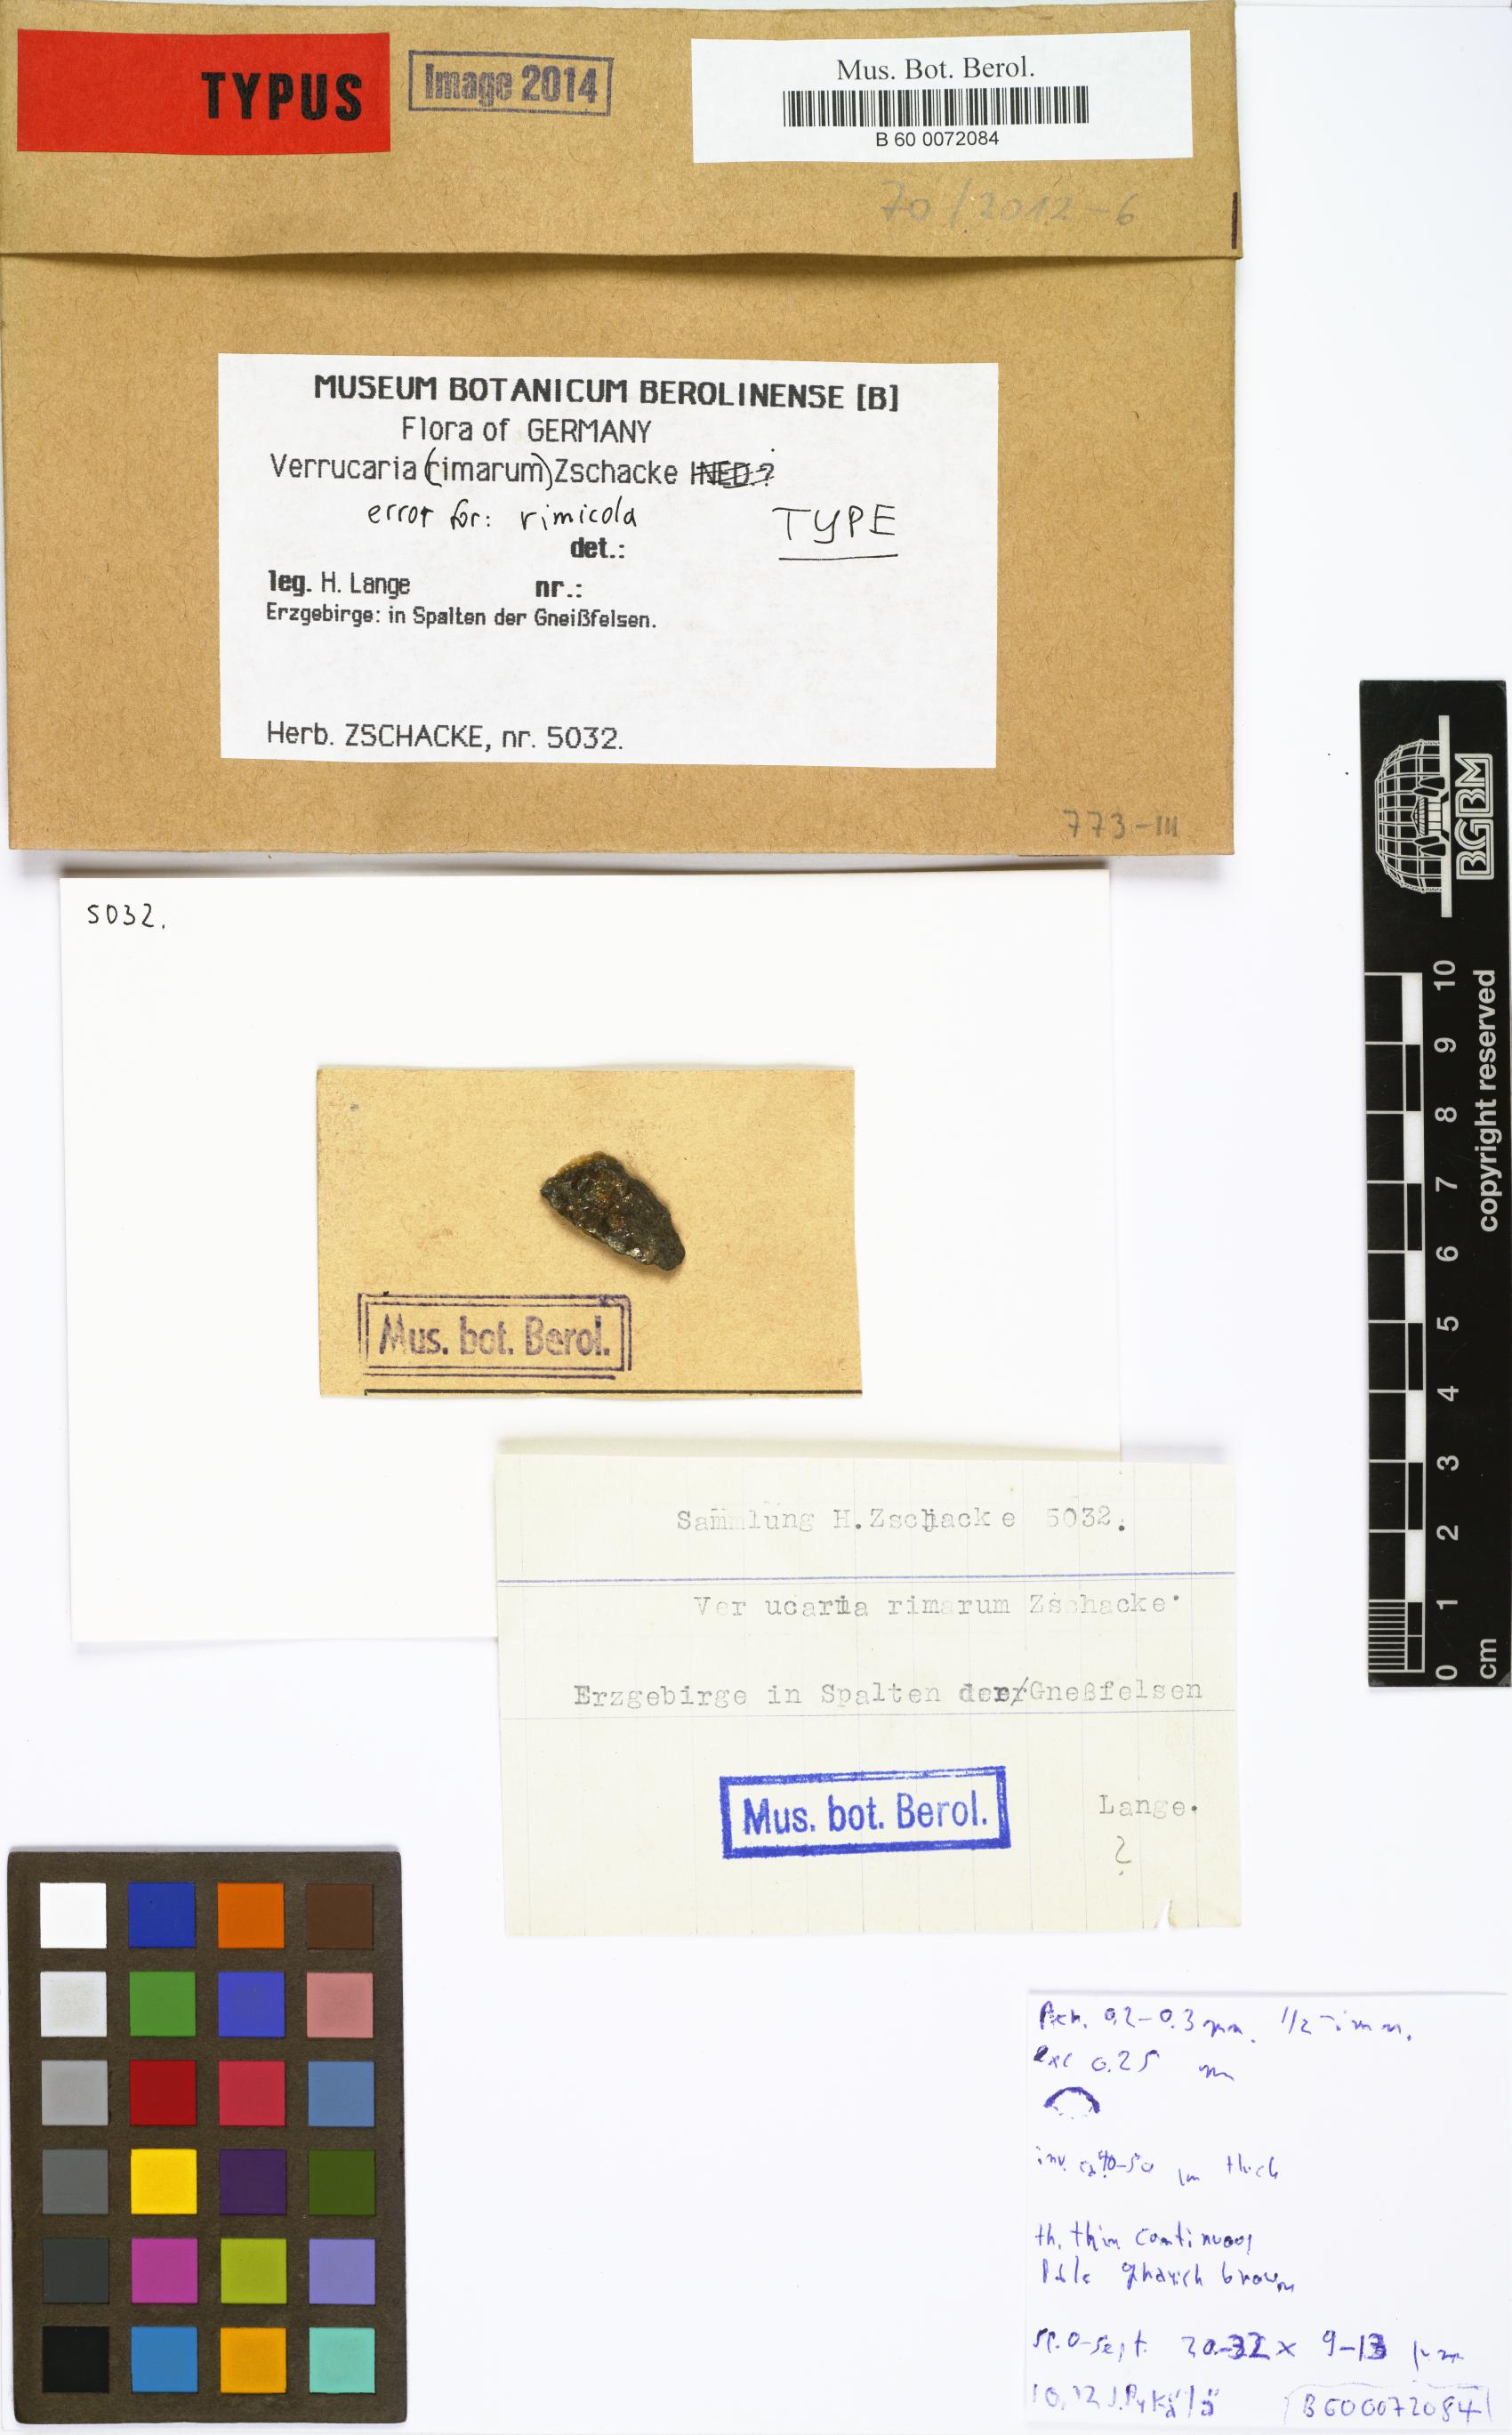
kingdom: Fungi
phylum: Ascomycota
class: Eurotiomycetes
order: Verrucariales
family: Verrucariaceae
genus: Verrucaria
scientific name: Verrucaria rhizicola
